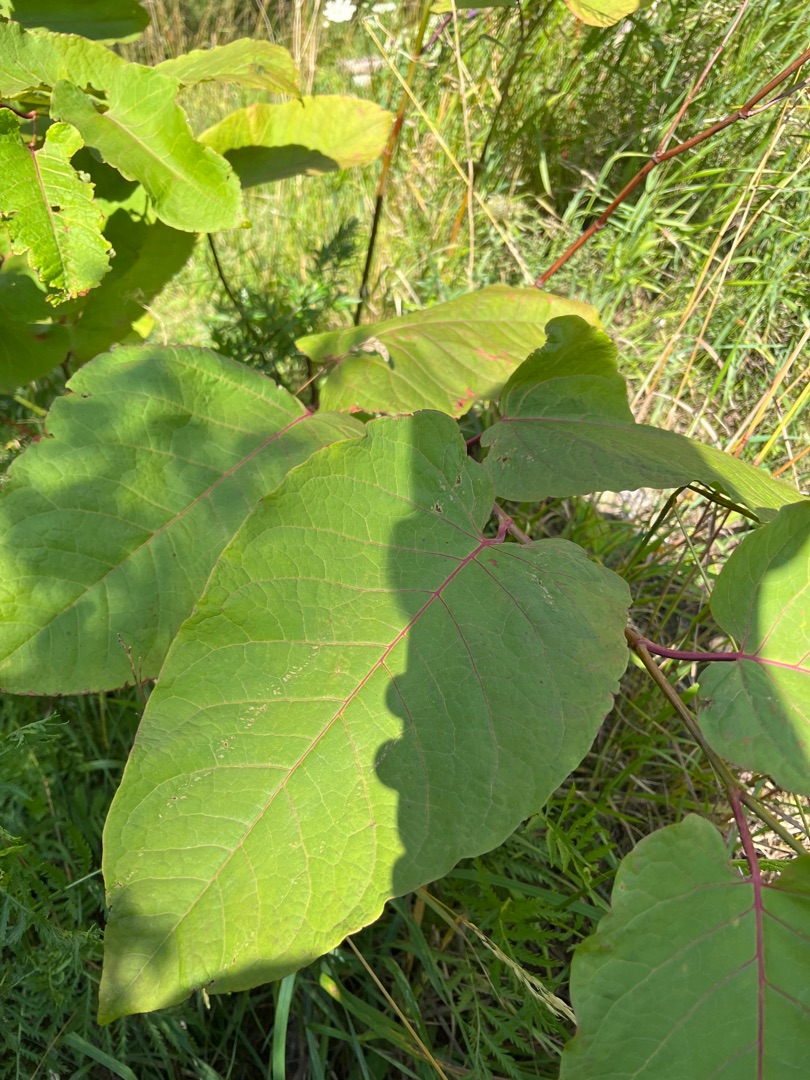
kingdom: Plantae
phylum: Tracheophyta
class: Magnoliopsida
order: Caryophyllales
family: Polygonaceae
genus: Reynoutria
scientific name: Reynoutria sachalinensis
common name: Kæmpe-pileurt
